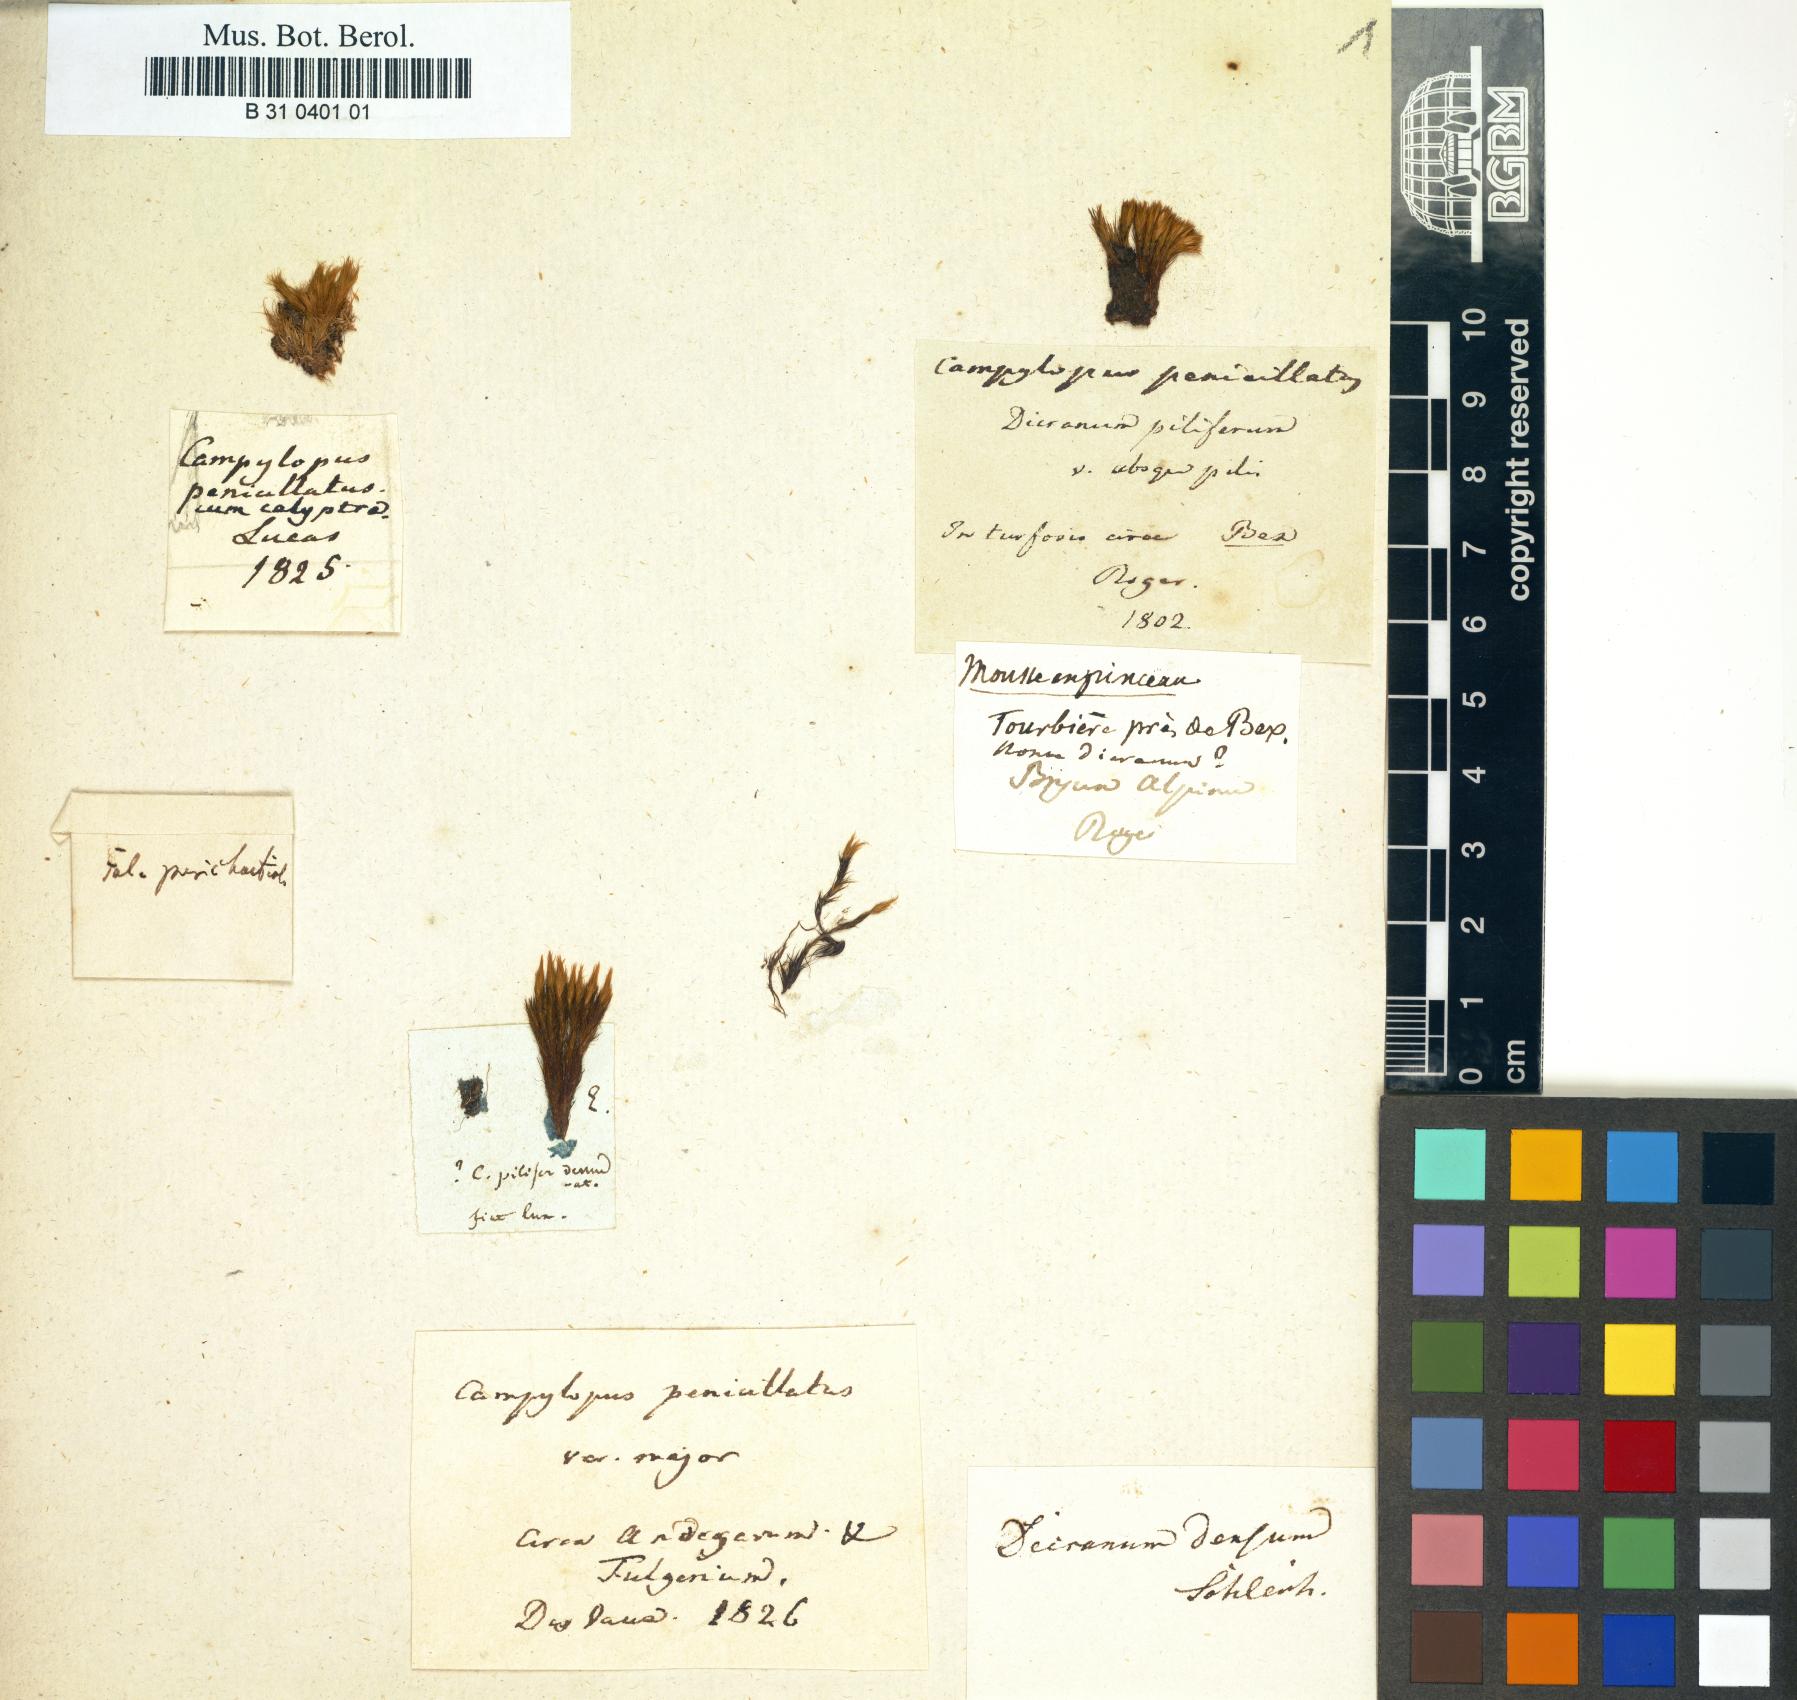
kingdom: Plantae
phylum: Bryophyta
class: Bryopsida
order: Dicranales
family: Leucobryaceae
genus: Campylopus
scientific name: Campylopus fragilis
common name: Brittle swan-neck moss
